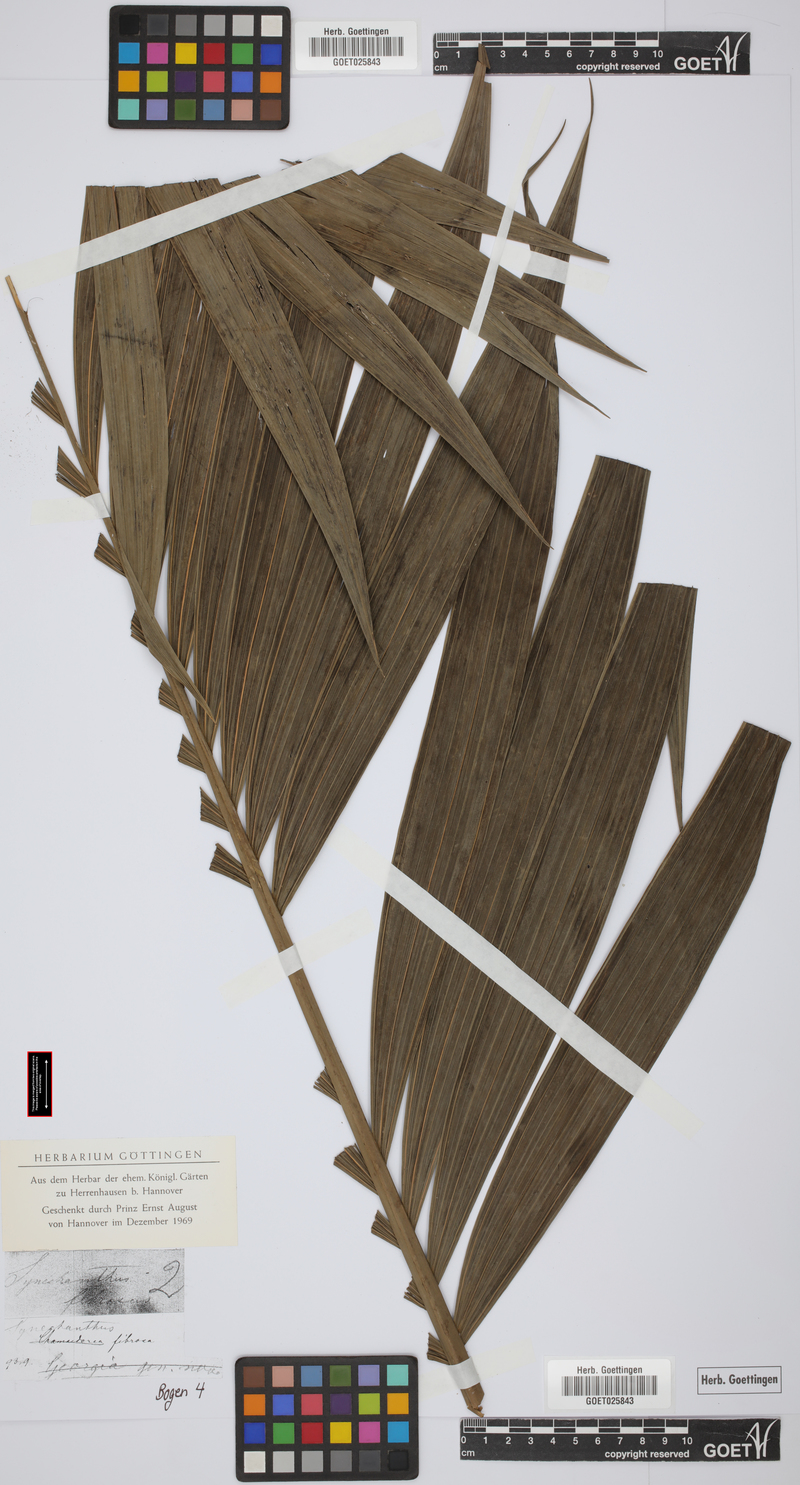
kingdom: Plantae
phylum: Tracheophyta
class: Liliopsida
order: Arecales
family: Arecaceae
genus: Synechanthus
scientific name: Synechanthus fibrosus
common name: Jellybean palm
